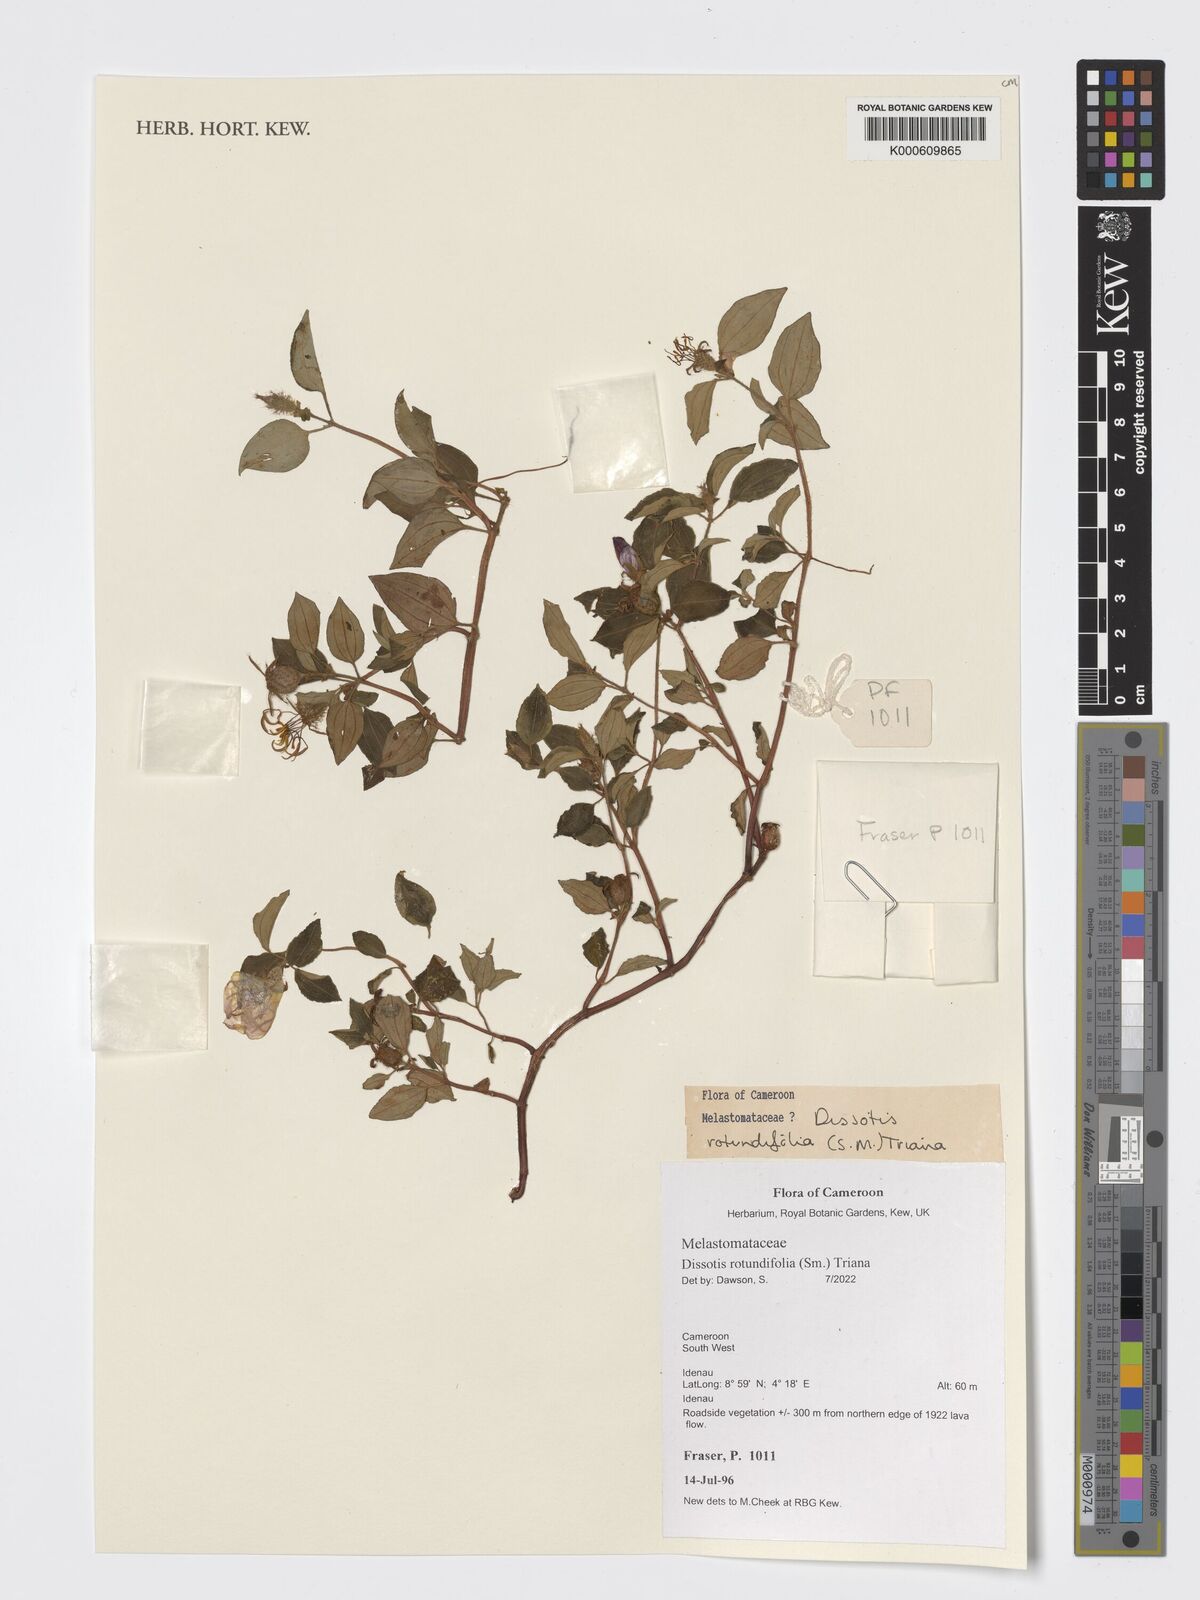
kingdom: Plantae
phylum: Tracheophyta
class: Magnoliopsida
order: Myrtales
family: Melastomataceae
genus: Heterotis
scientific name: Heterotis rotundifolia
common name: Pinklady
